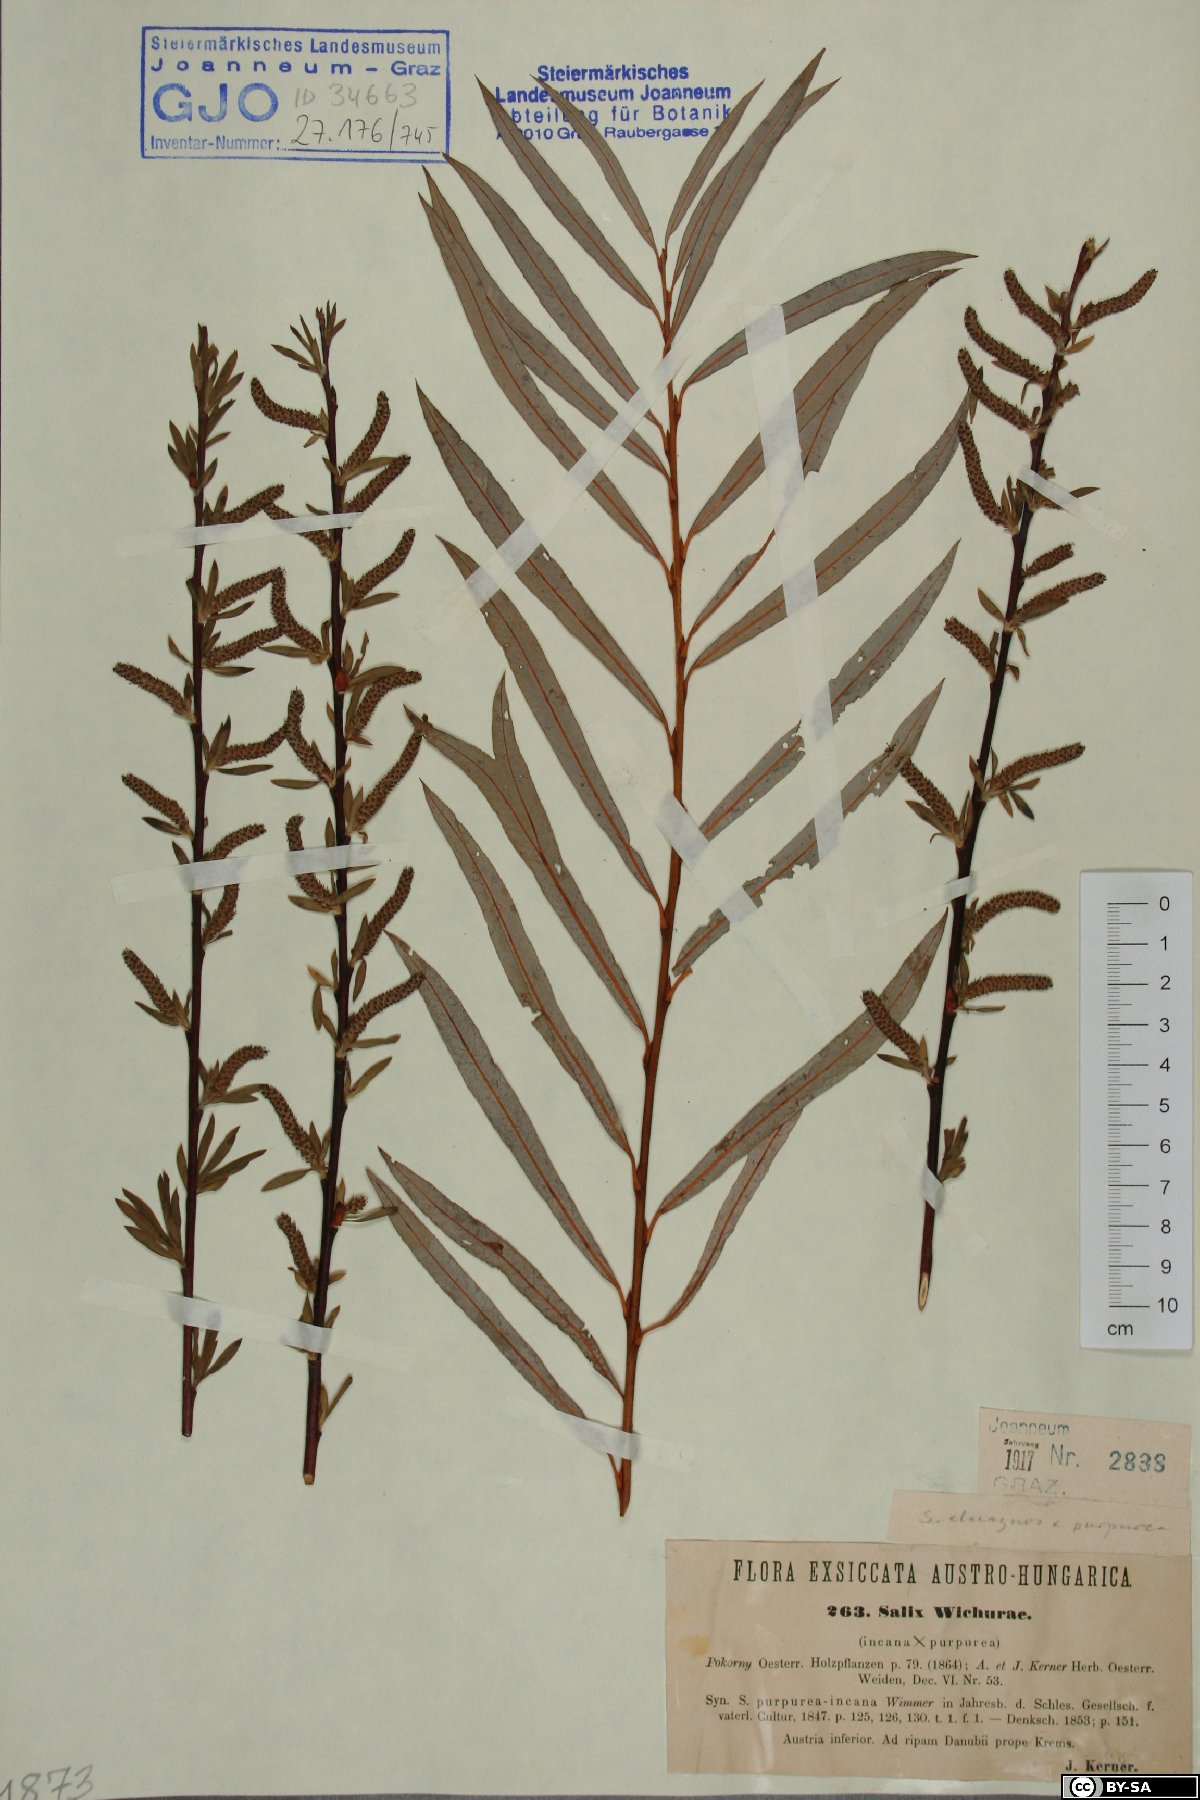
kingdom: Plantae
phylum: Tracheophyta
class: Magnoliopsida
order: Malpighiales
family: Salicaceae
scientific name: Salicaceae
